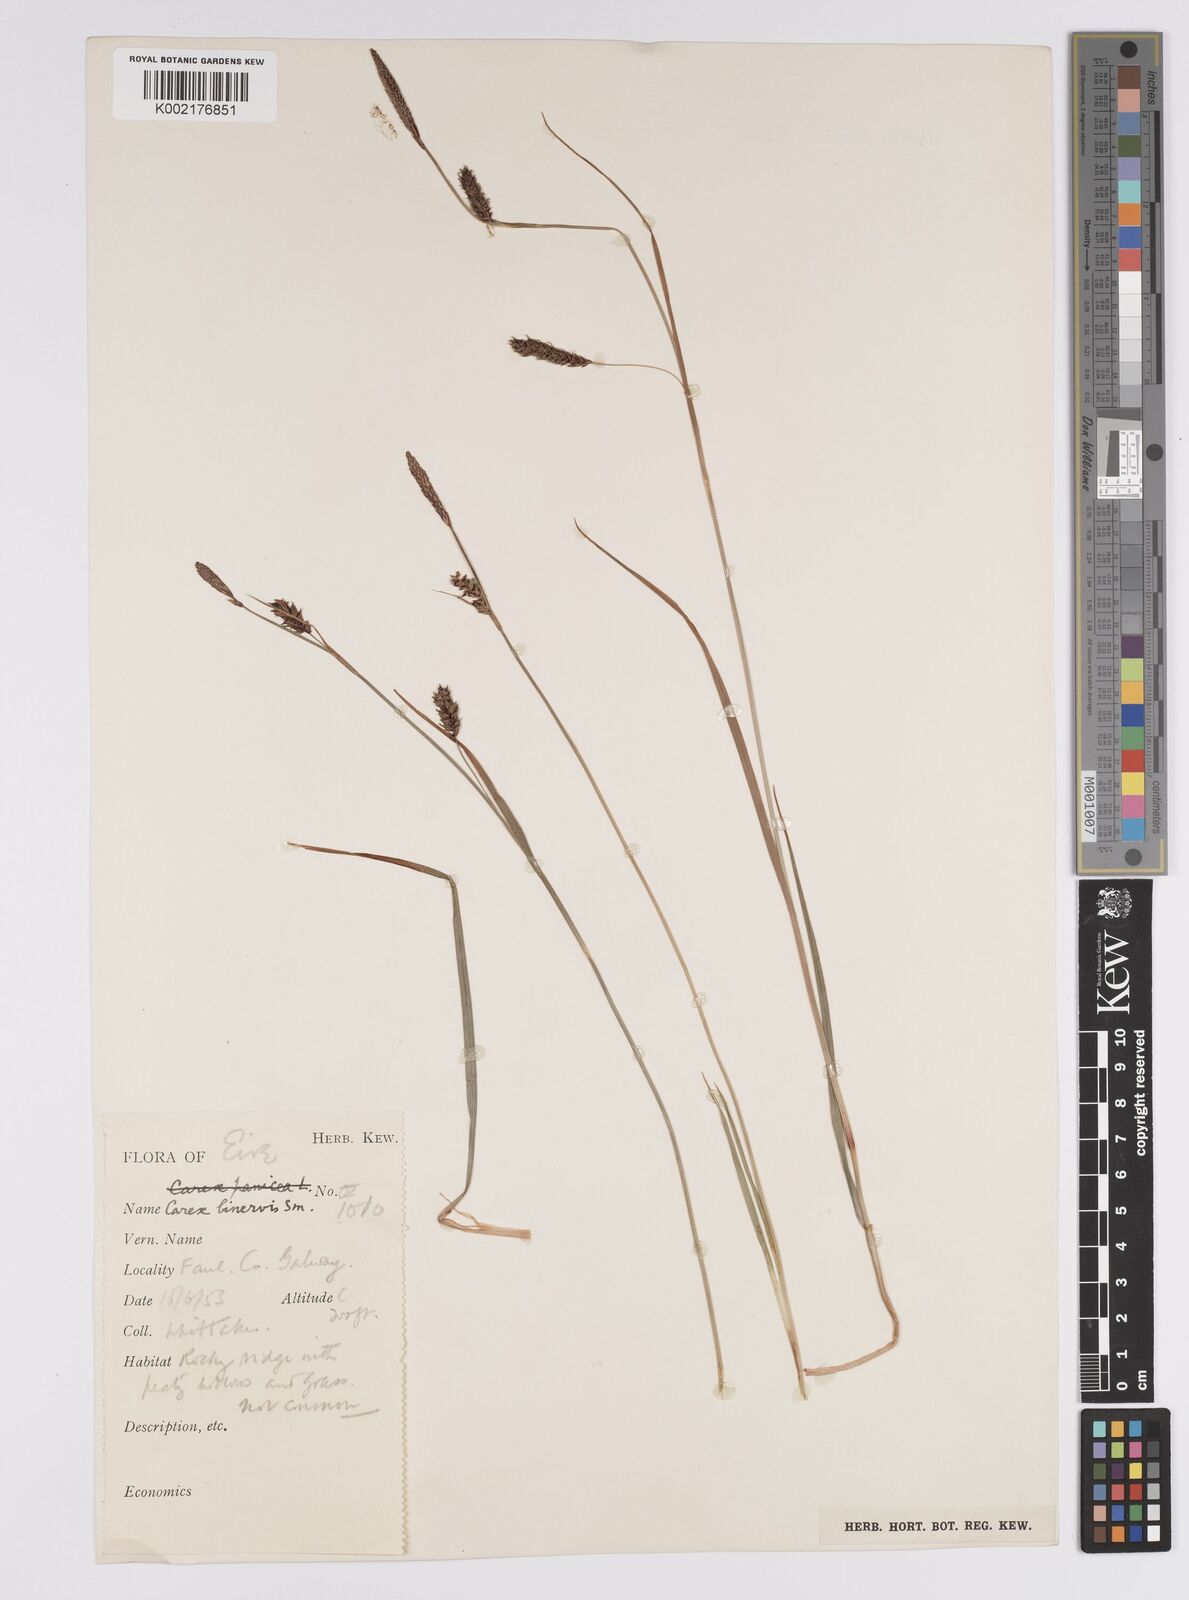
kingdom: Plantae
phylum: Tracheophyta
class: Liliopsida
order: Poales
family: Cyperaceae
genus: Carex
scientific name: Carex binervis
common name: Green-ribbed sedge
